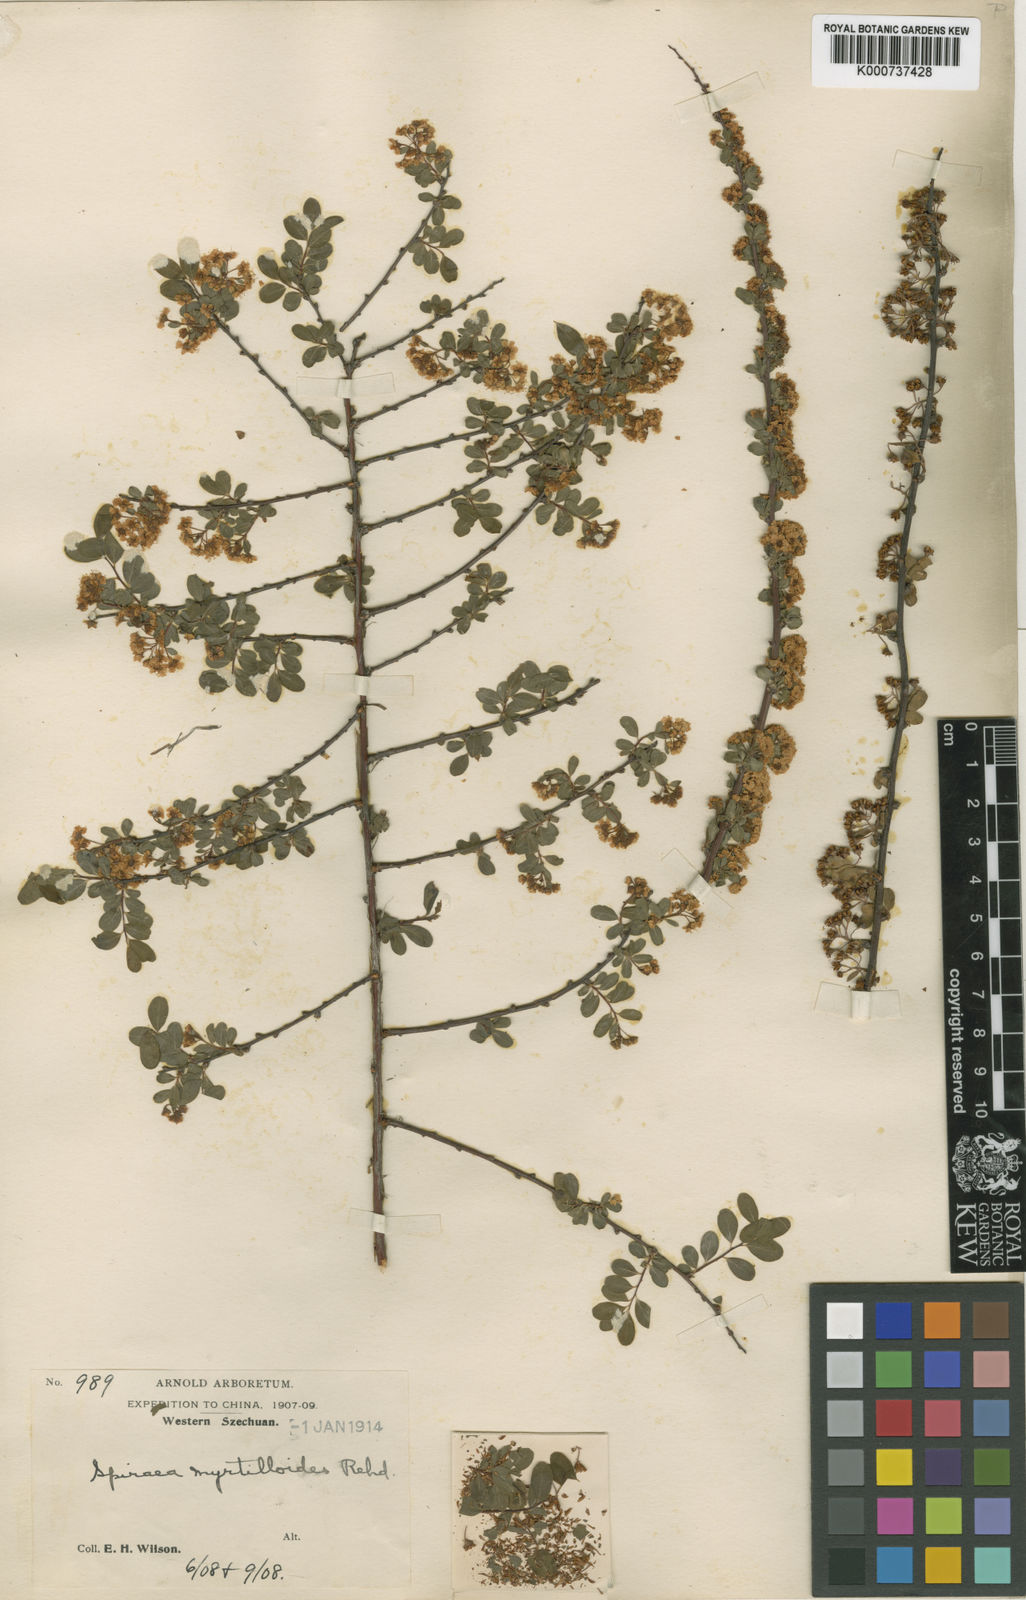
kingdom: Plantae
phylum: Tracheophyta
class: Magnoliopsida
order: Rosales
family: Rosaceae
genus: Spiraea
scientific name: Spiraea myrtilloides
